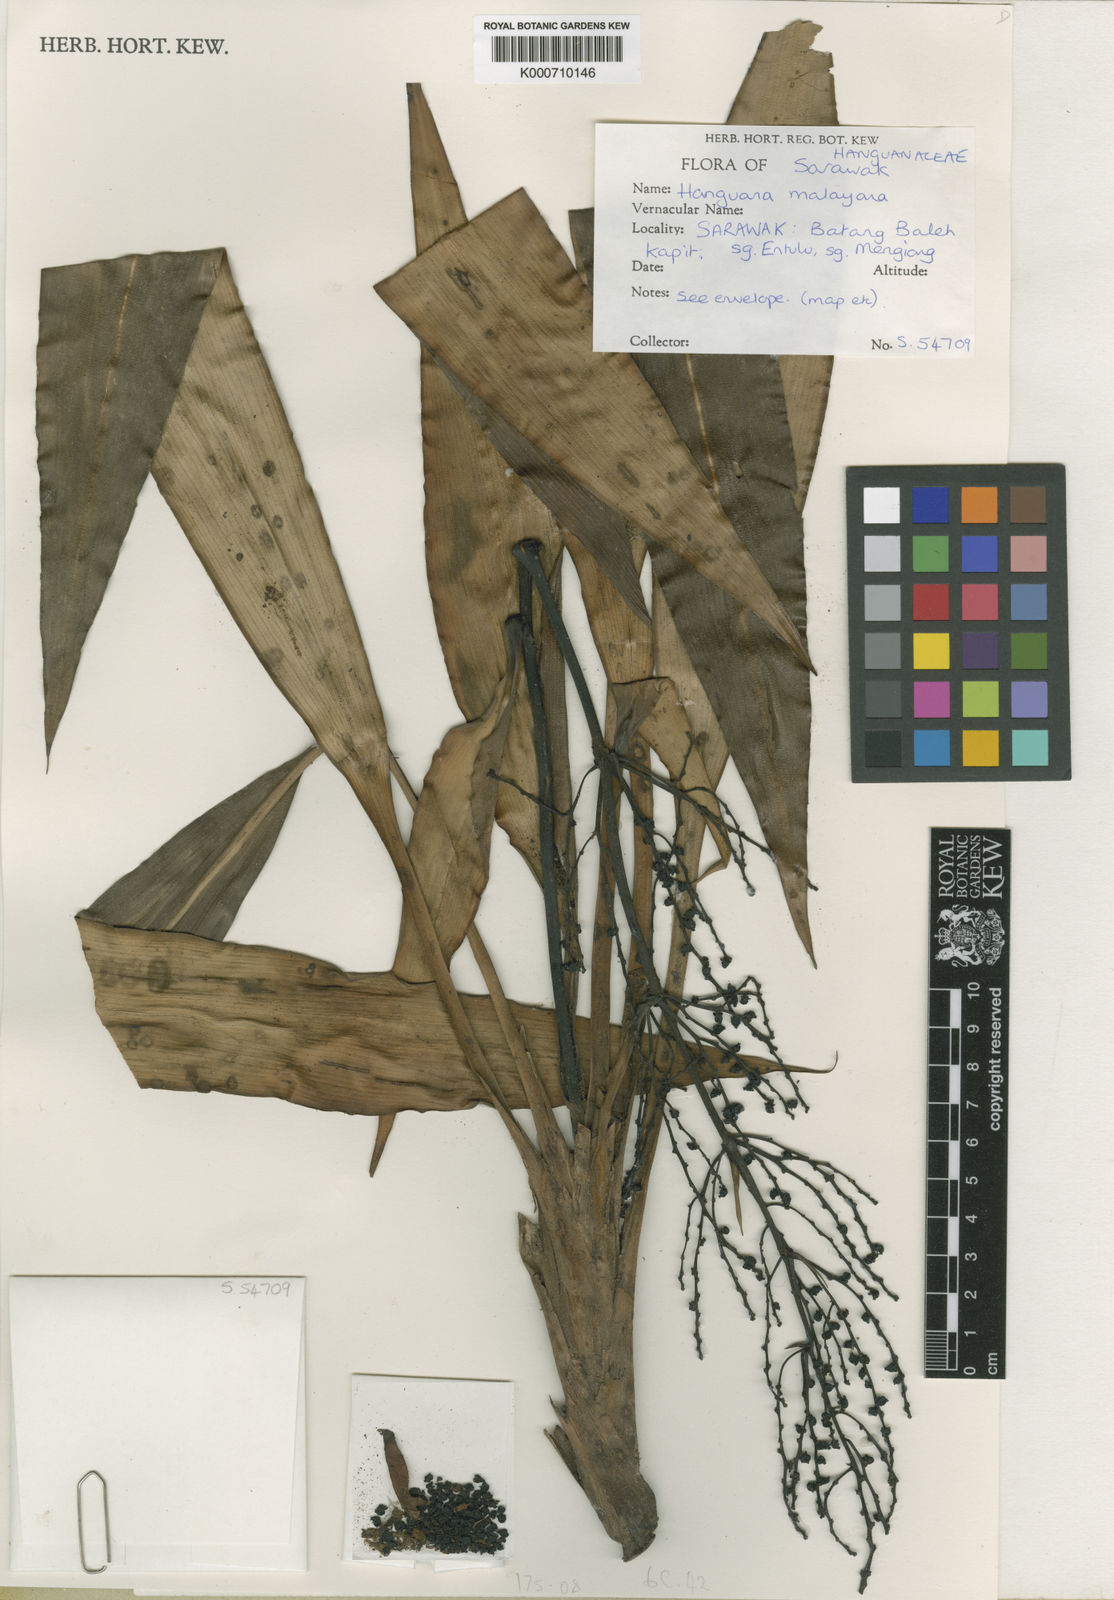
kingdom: Plantae
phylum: Tracheophyta
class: Liliopsida
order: Commelinales
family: Hanguanaceae
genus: Hanguana
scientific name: Hanguana malayana
